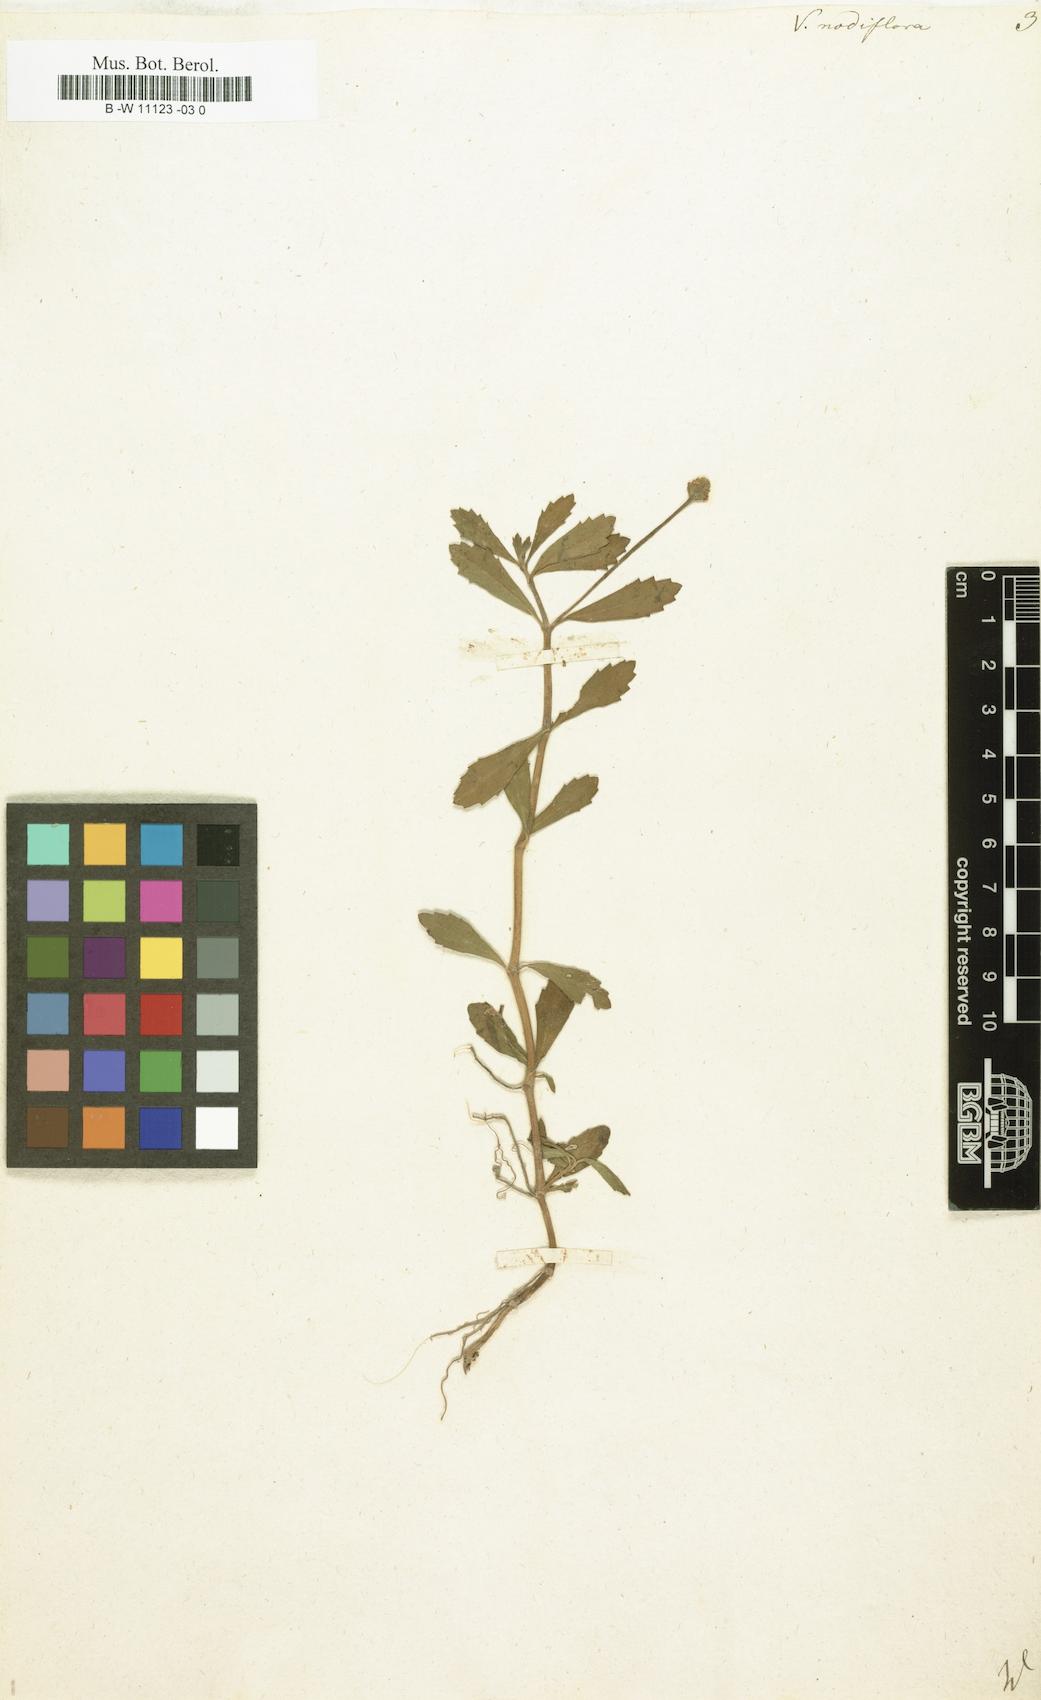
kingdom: Plantae
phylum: Tracheophyta
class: Magnoliopsida
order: Lamiales
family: Verbenaceae
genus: Verbena
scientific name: Verbena nodiflora
